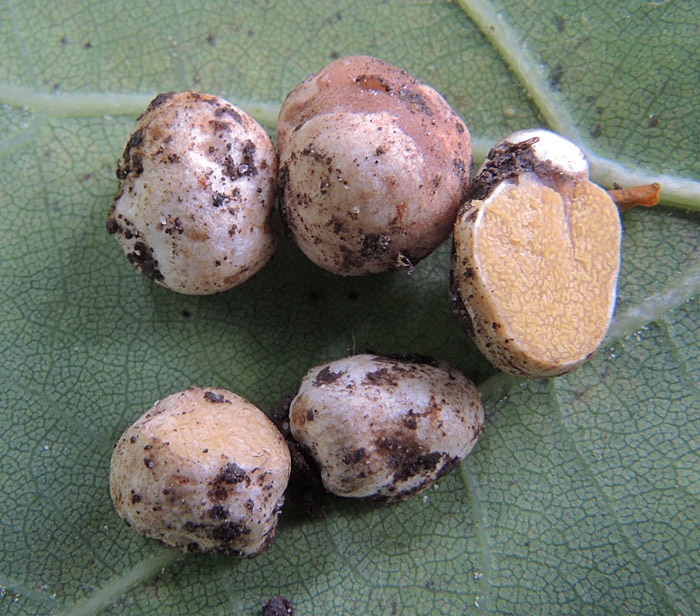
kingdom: Fungi
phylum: Basidiomycota
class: Agaricomycetes
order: Agaricales
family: Hymenogastraceae
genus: Hymenogaster
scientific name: Hymenogaster luteus
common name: gulkødet knoldtrøffel
